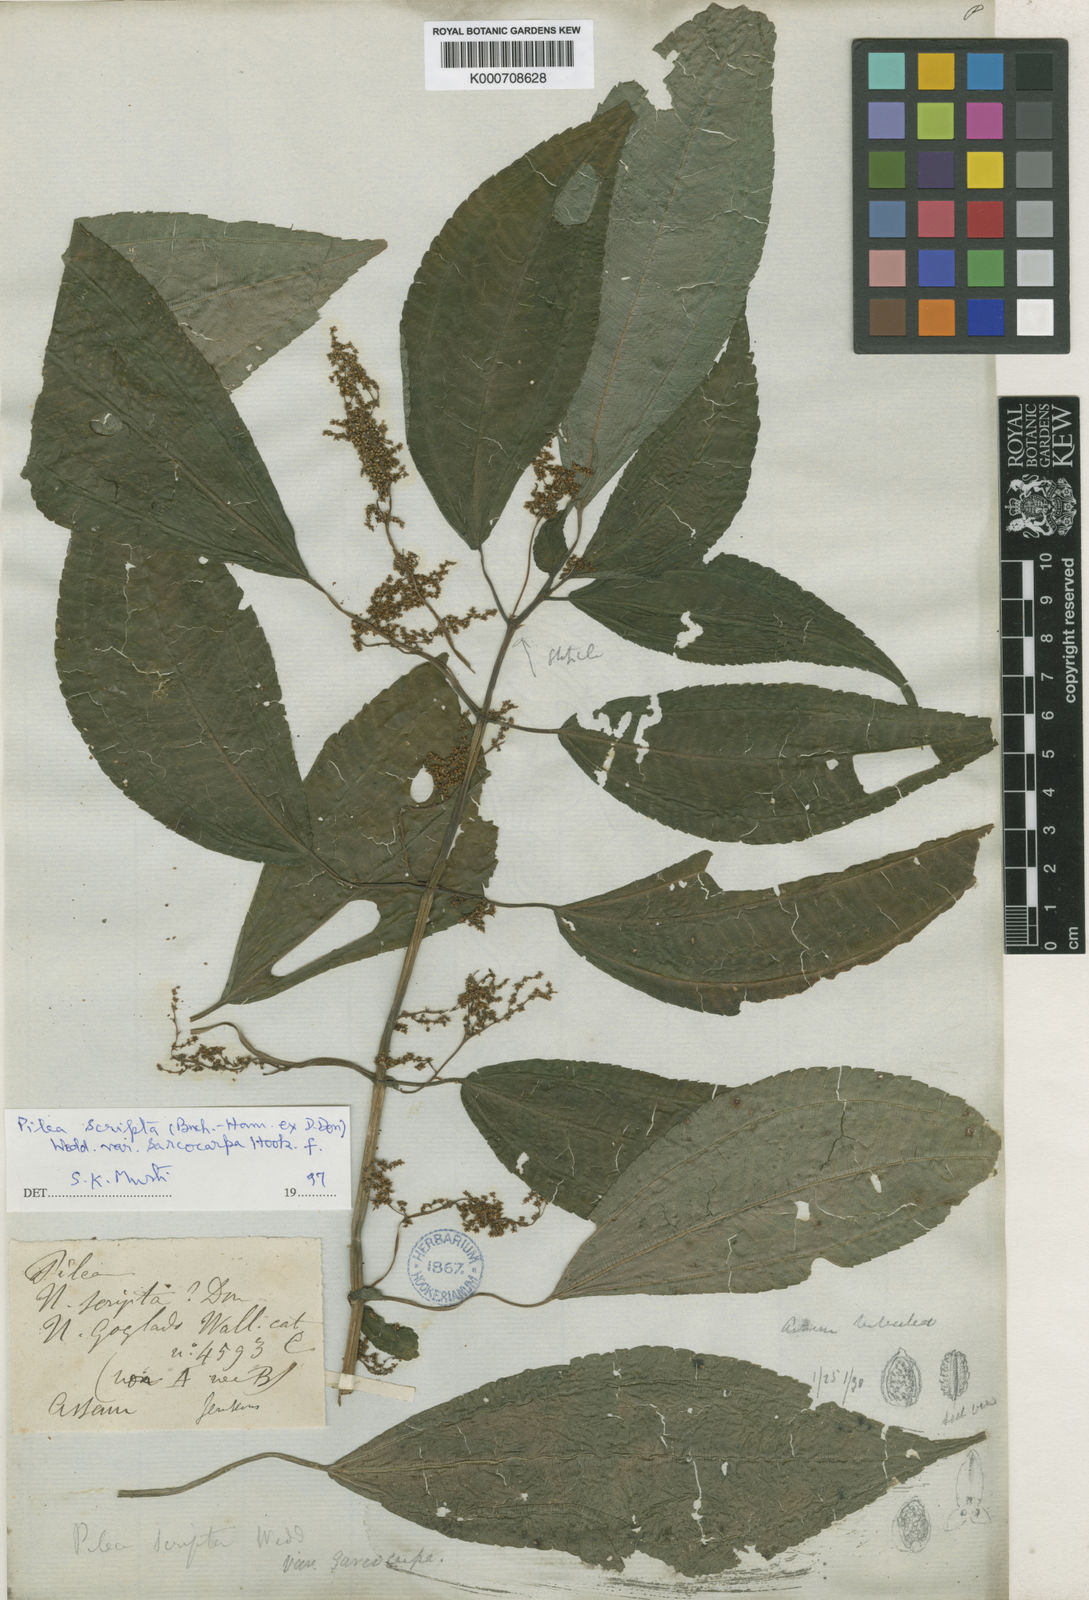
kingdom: Plantae
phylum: Tracheophyta
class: Magnoliopsida
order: Rosales
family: Urticaceae
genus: Pilea
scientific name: Pilea scripta
